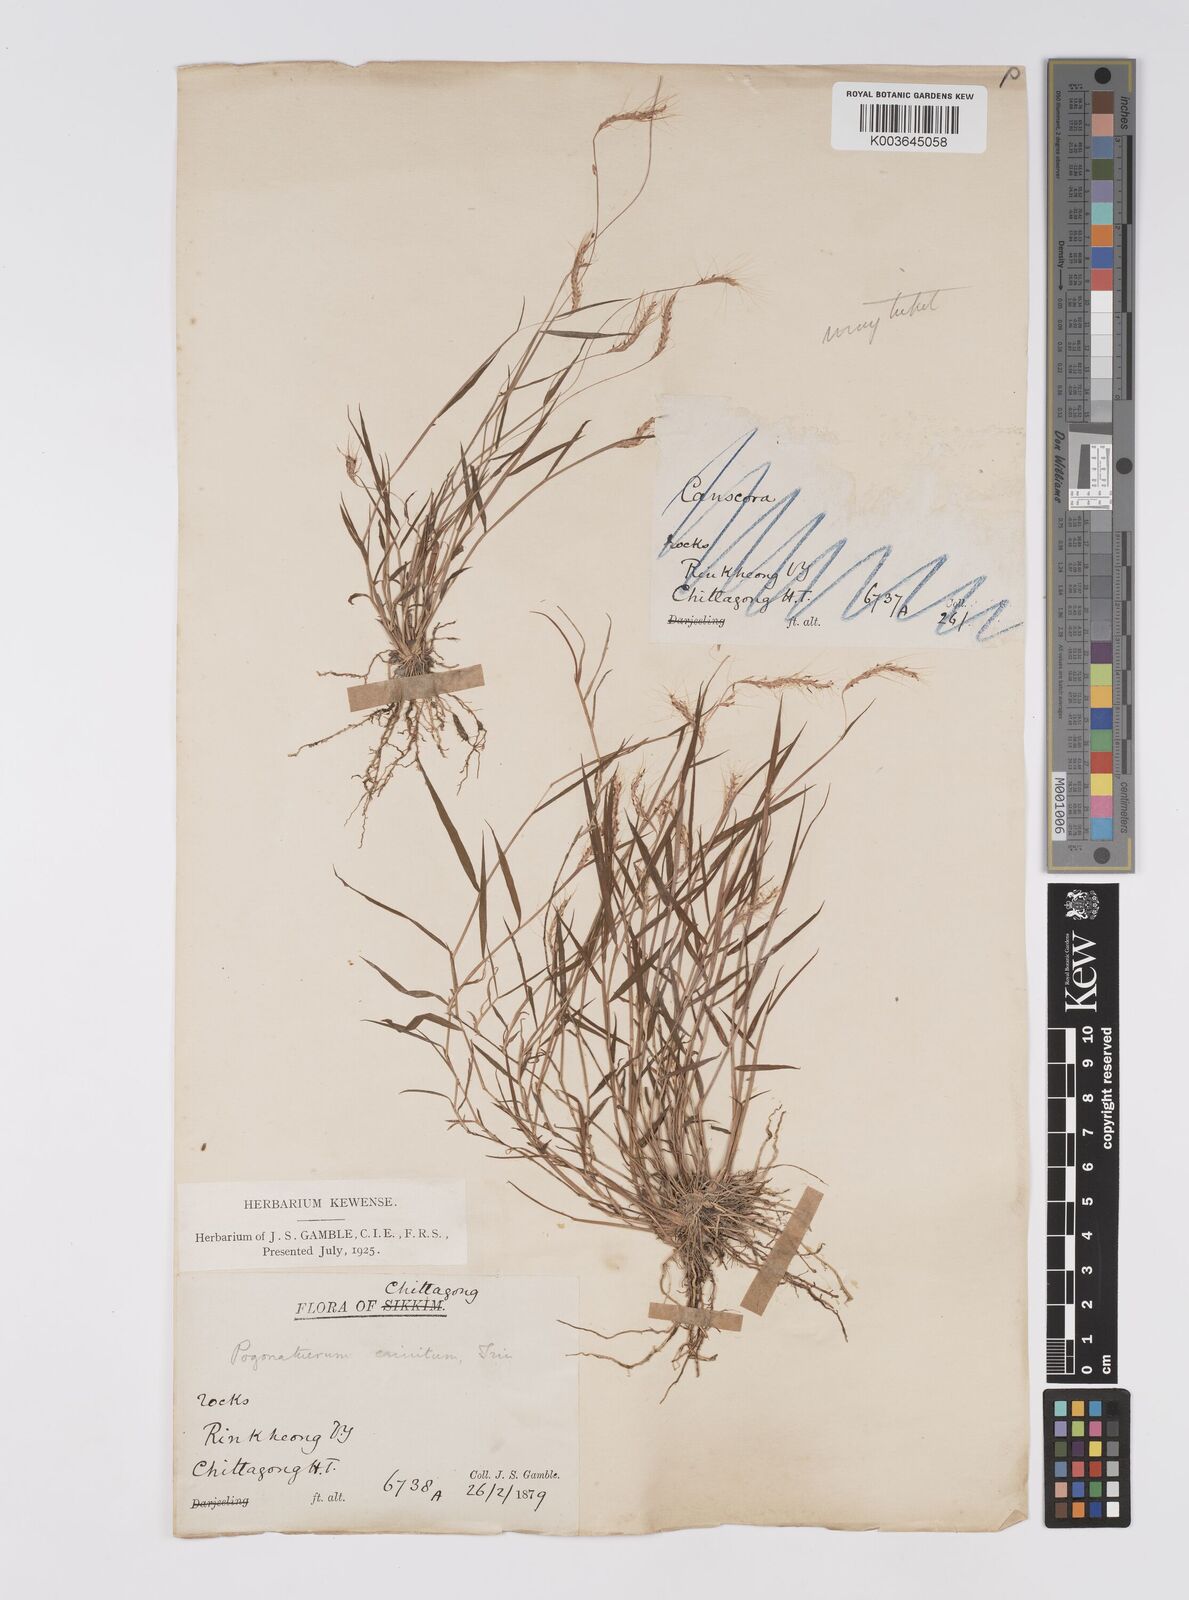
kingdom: Plantae
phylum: Tracheophyta
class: Liliopsida
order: Poales
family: Poaceae
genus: Pogonatherum
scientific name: Pogonatherum crinitum
